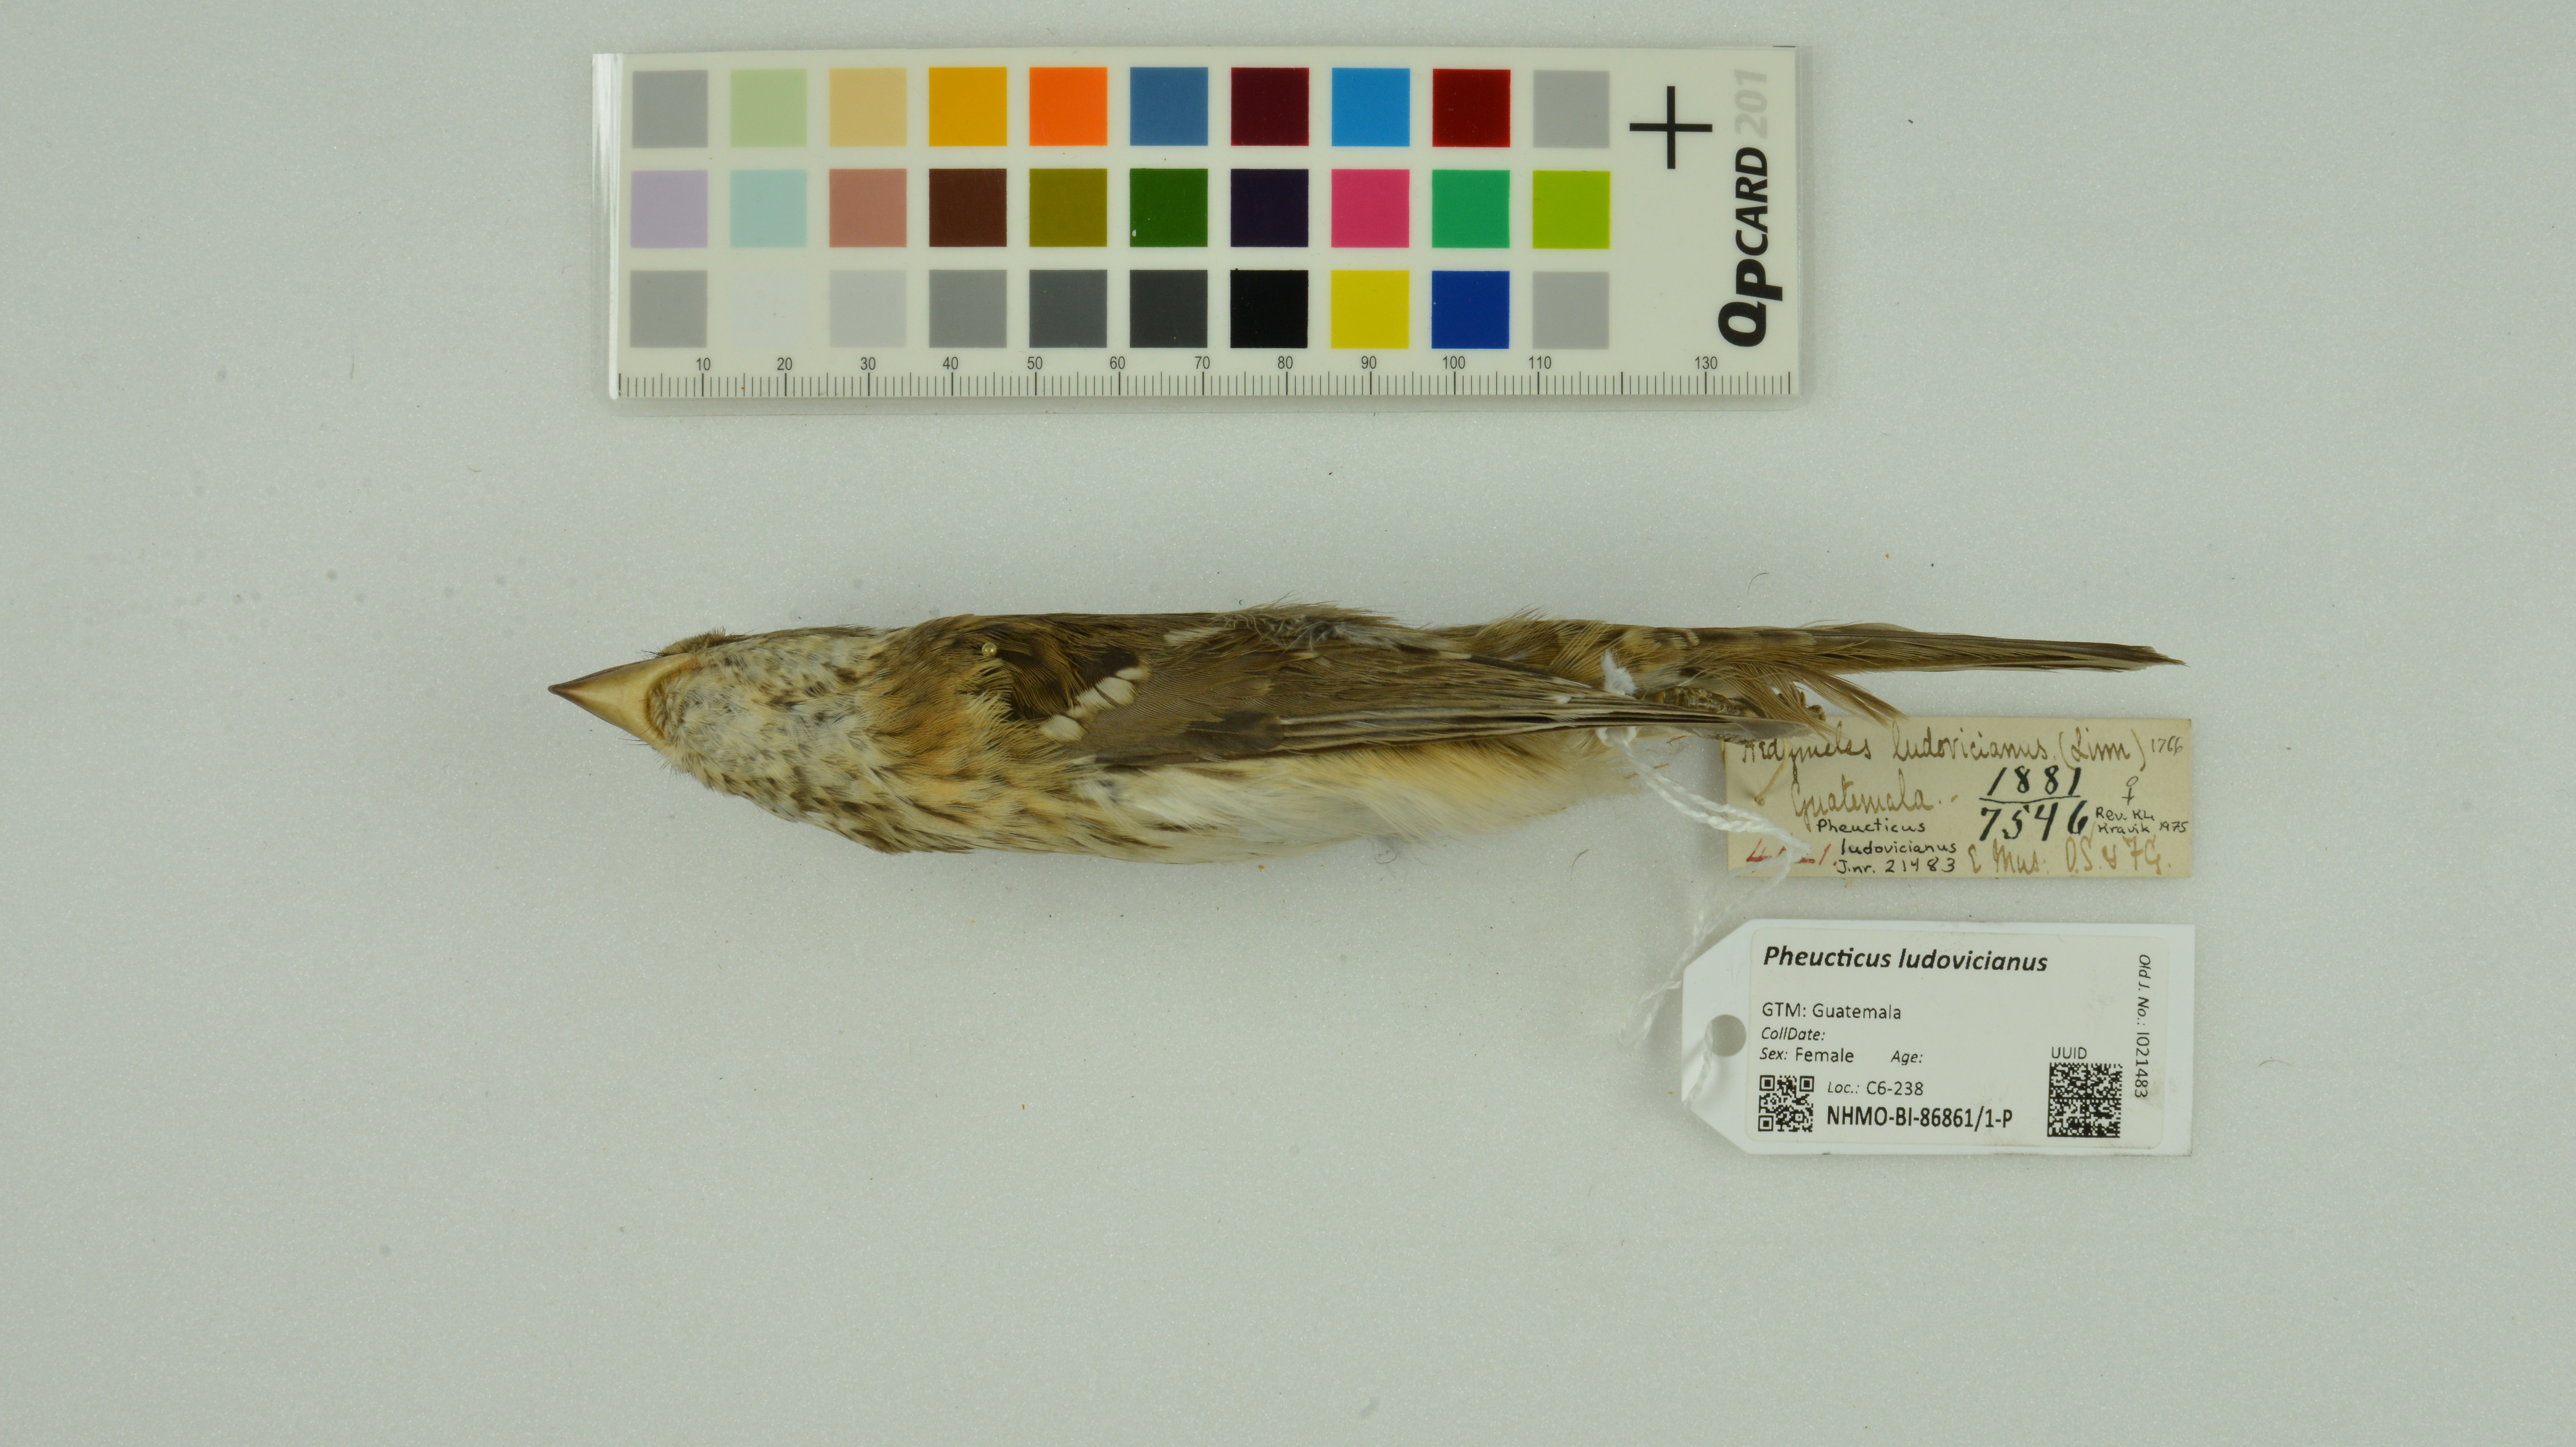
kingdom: Animalia
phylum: Chordata
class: Aves
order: Passeriformes
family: Cardinalidae
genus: Pheucticus
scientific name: Pheucticus ludovicianus
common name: Rose-breasted grosbeak
